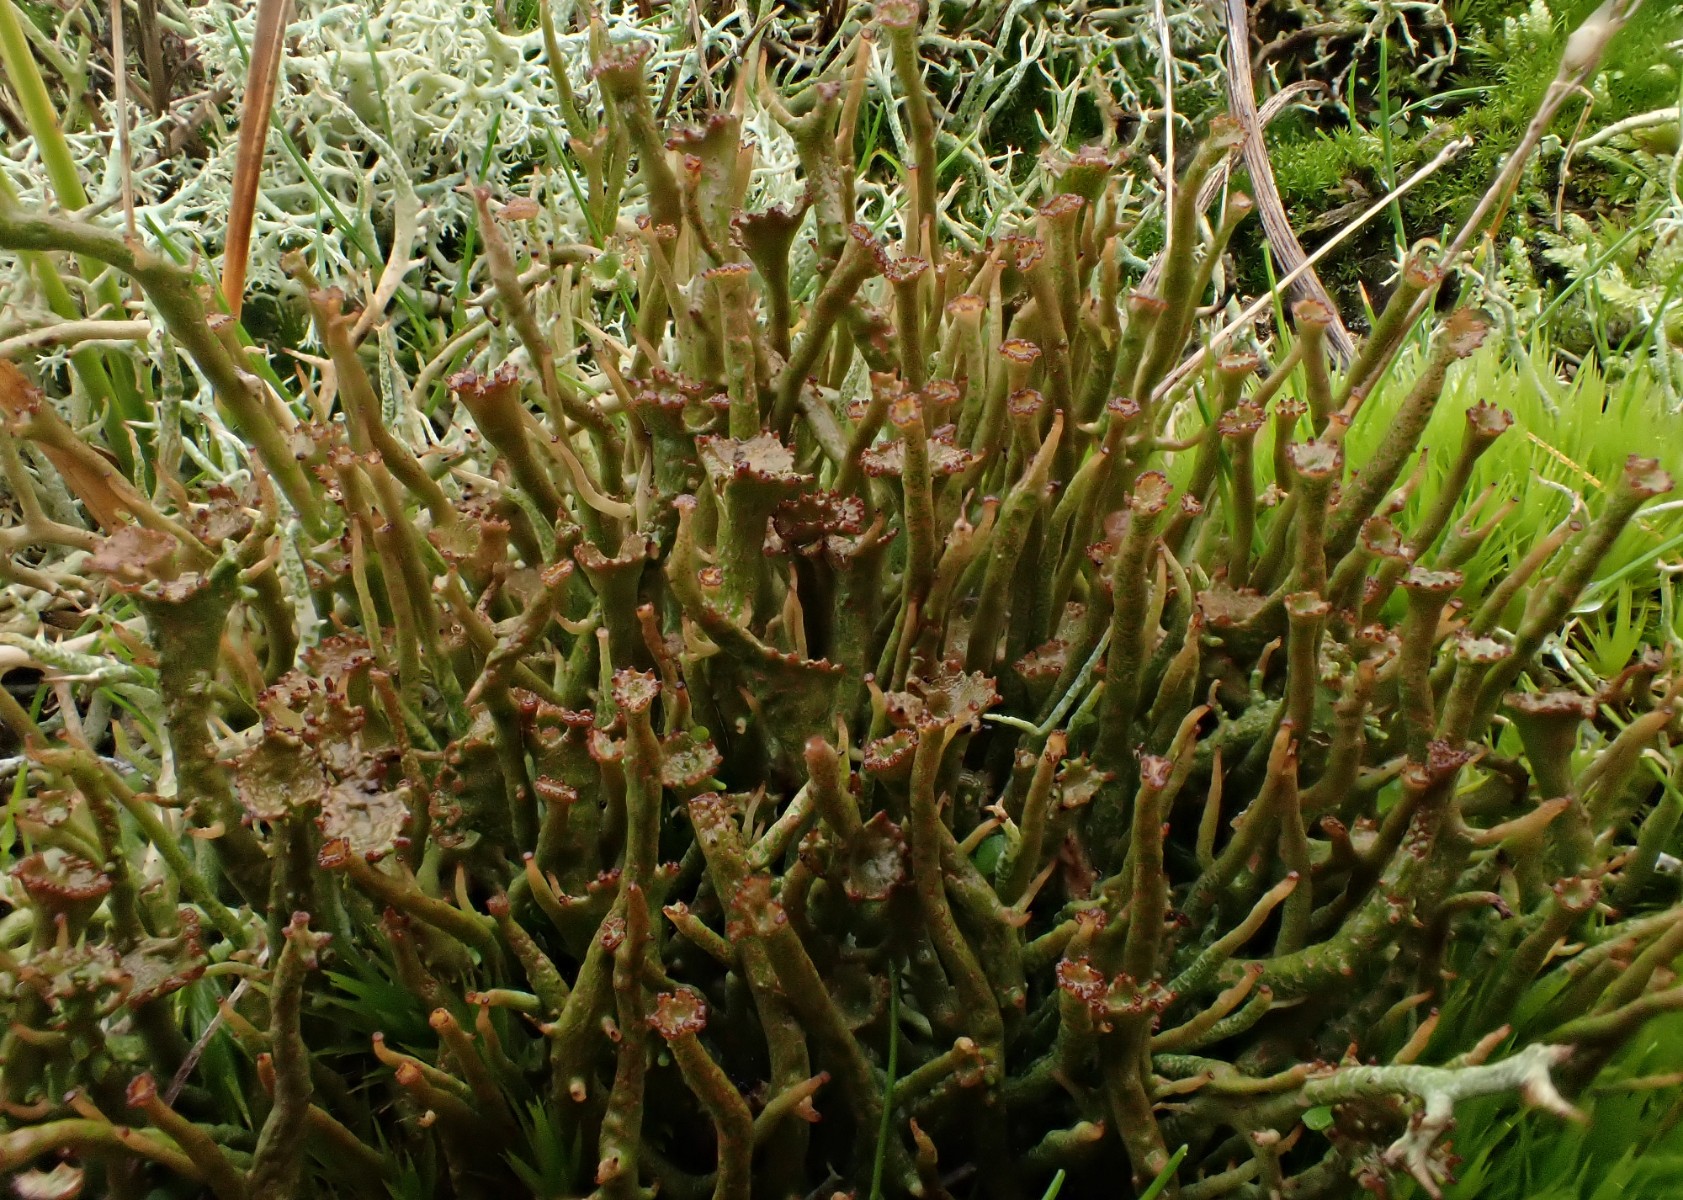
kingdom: Fungi
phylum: Ascomycota
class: Lecanoromycetes
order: Lecanorales
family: Cladoniaceae
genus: Cladonia
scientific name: Cladonia gracilis
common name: slank bægerlav
